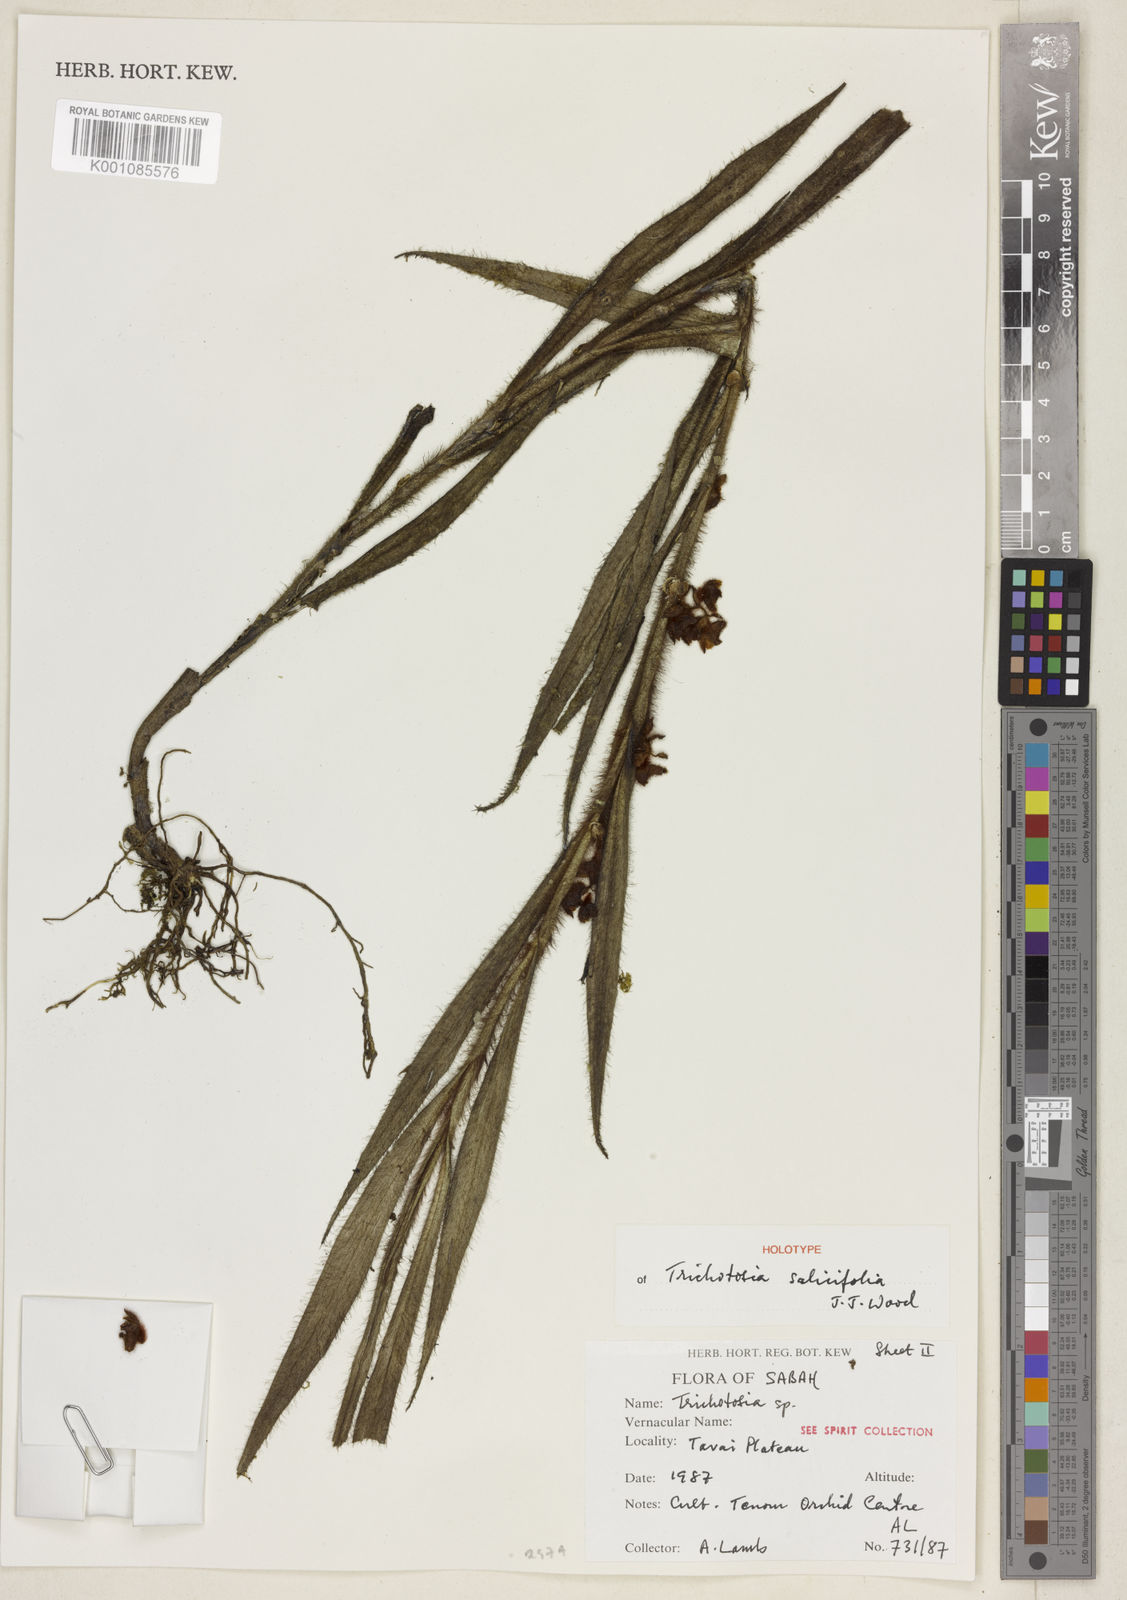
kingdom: Plantae
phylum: Tracheophyta
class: Liliopsida
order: Asparagales
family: Orchidaceae
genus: Trichotosia
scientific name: Trichotosia salicifolia
